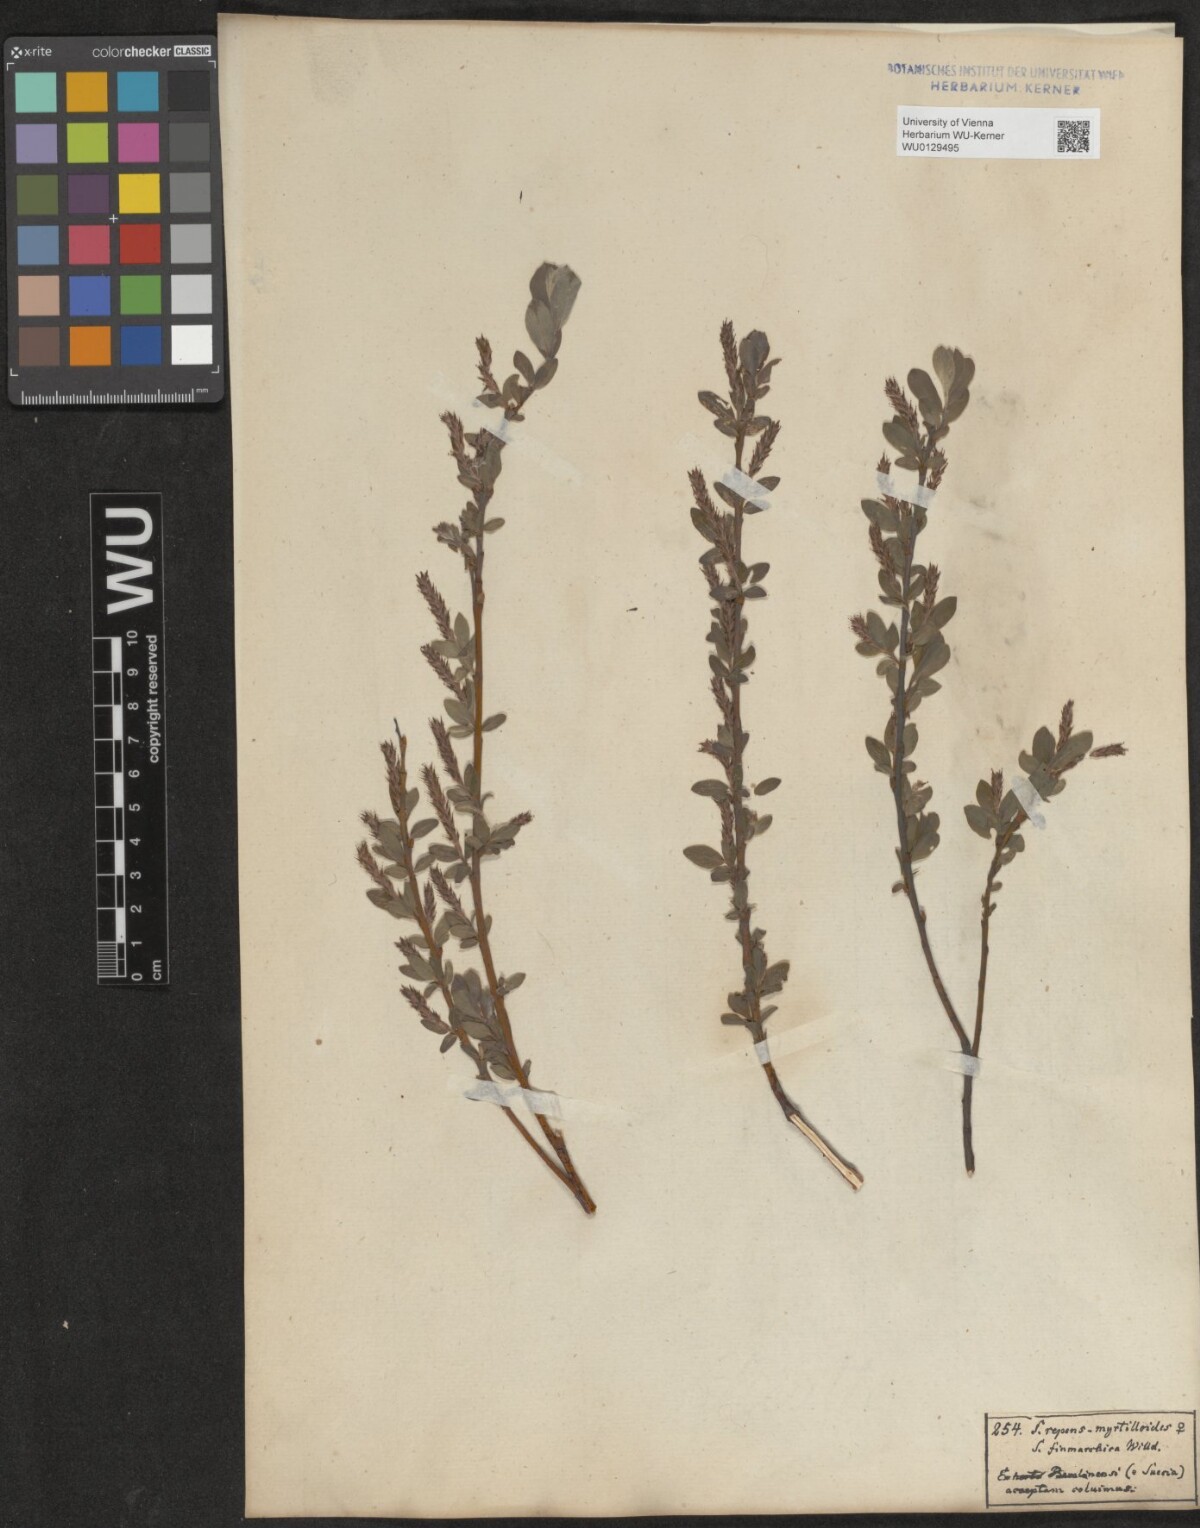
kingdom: Plantae
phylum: Tracheophyta
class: Magnoliopsida
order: Malpighiales
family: Salicaceae
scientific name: Salicaceae
